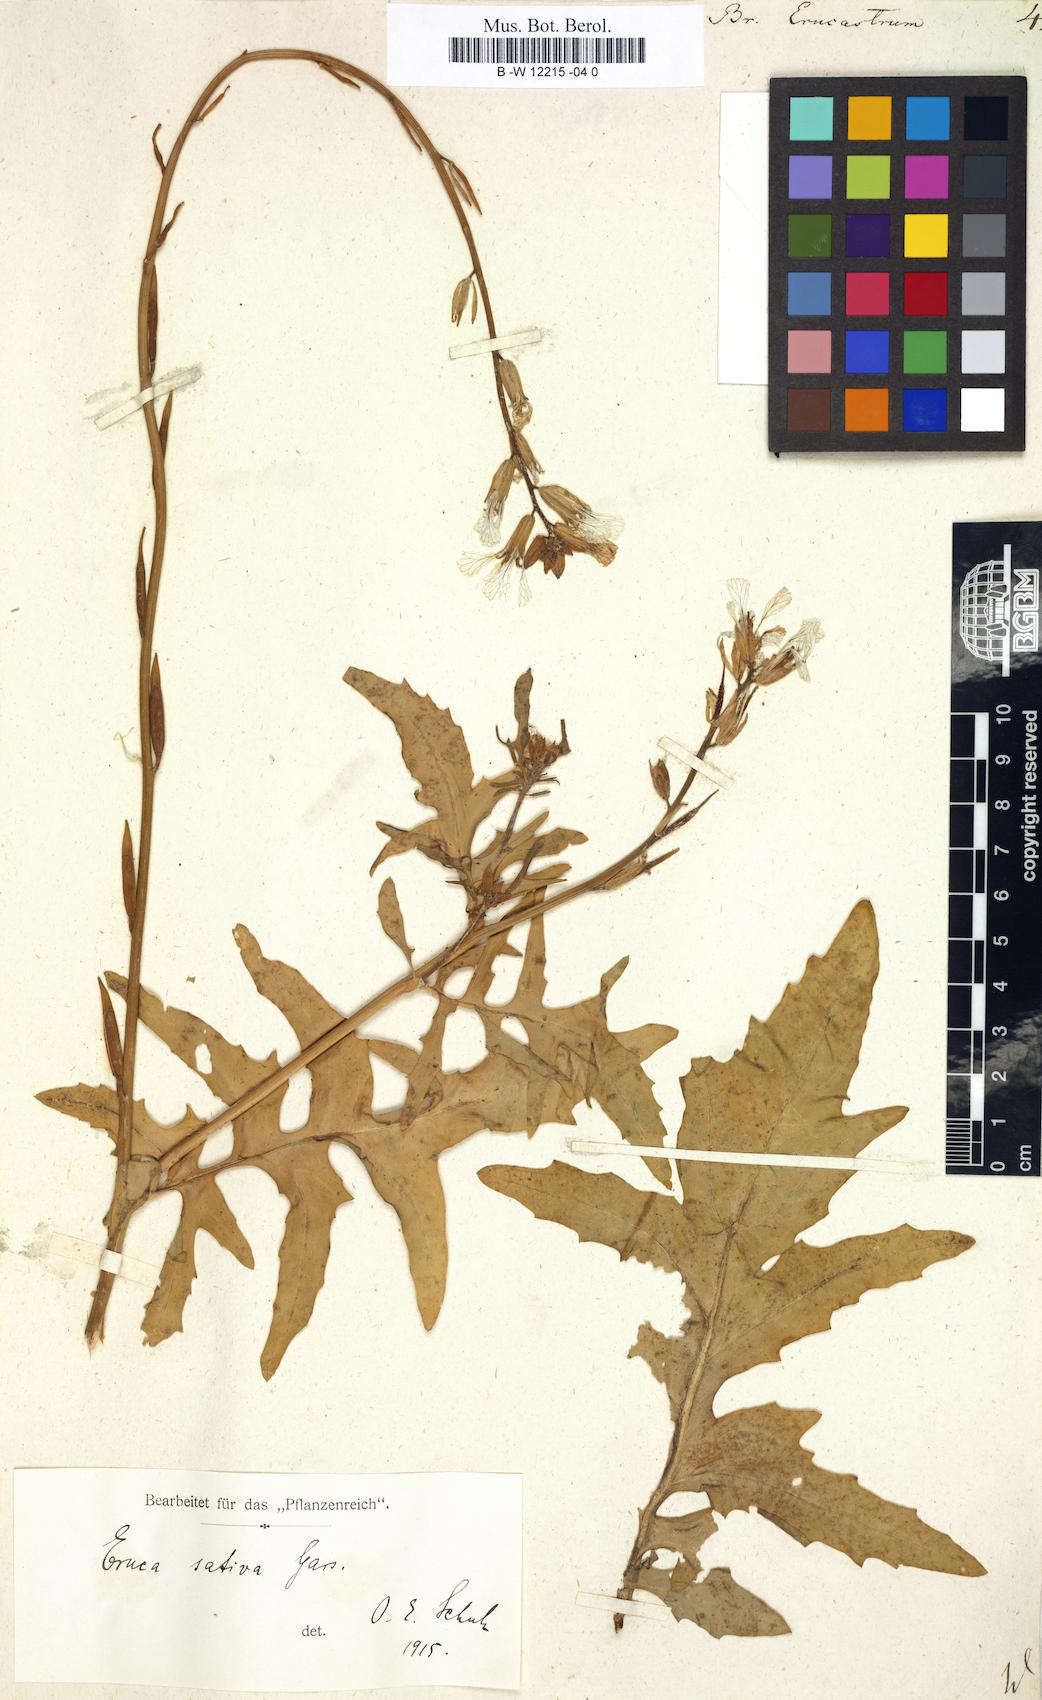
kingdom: Plantae
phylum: Tracheophyta
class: Magnoliopsida
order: Brassicales
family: Brassicaceae
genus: Brassica
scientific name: Brassica erucastrum
